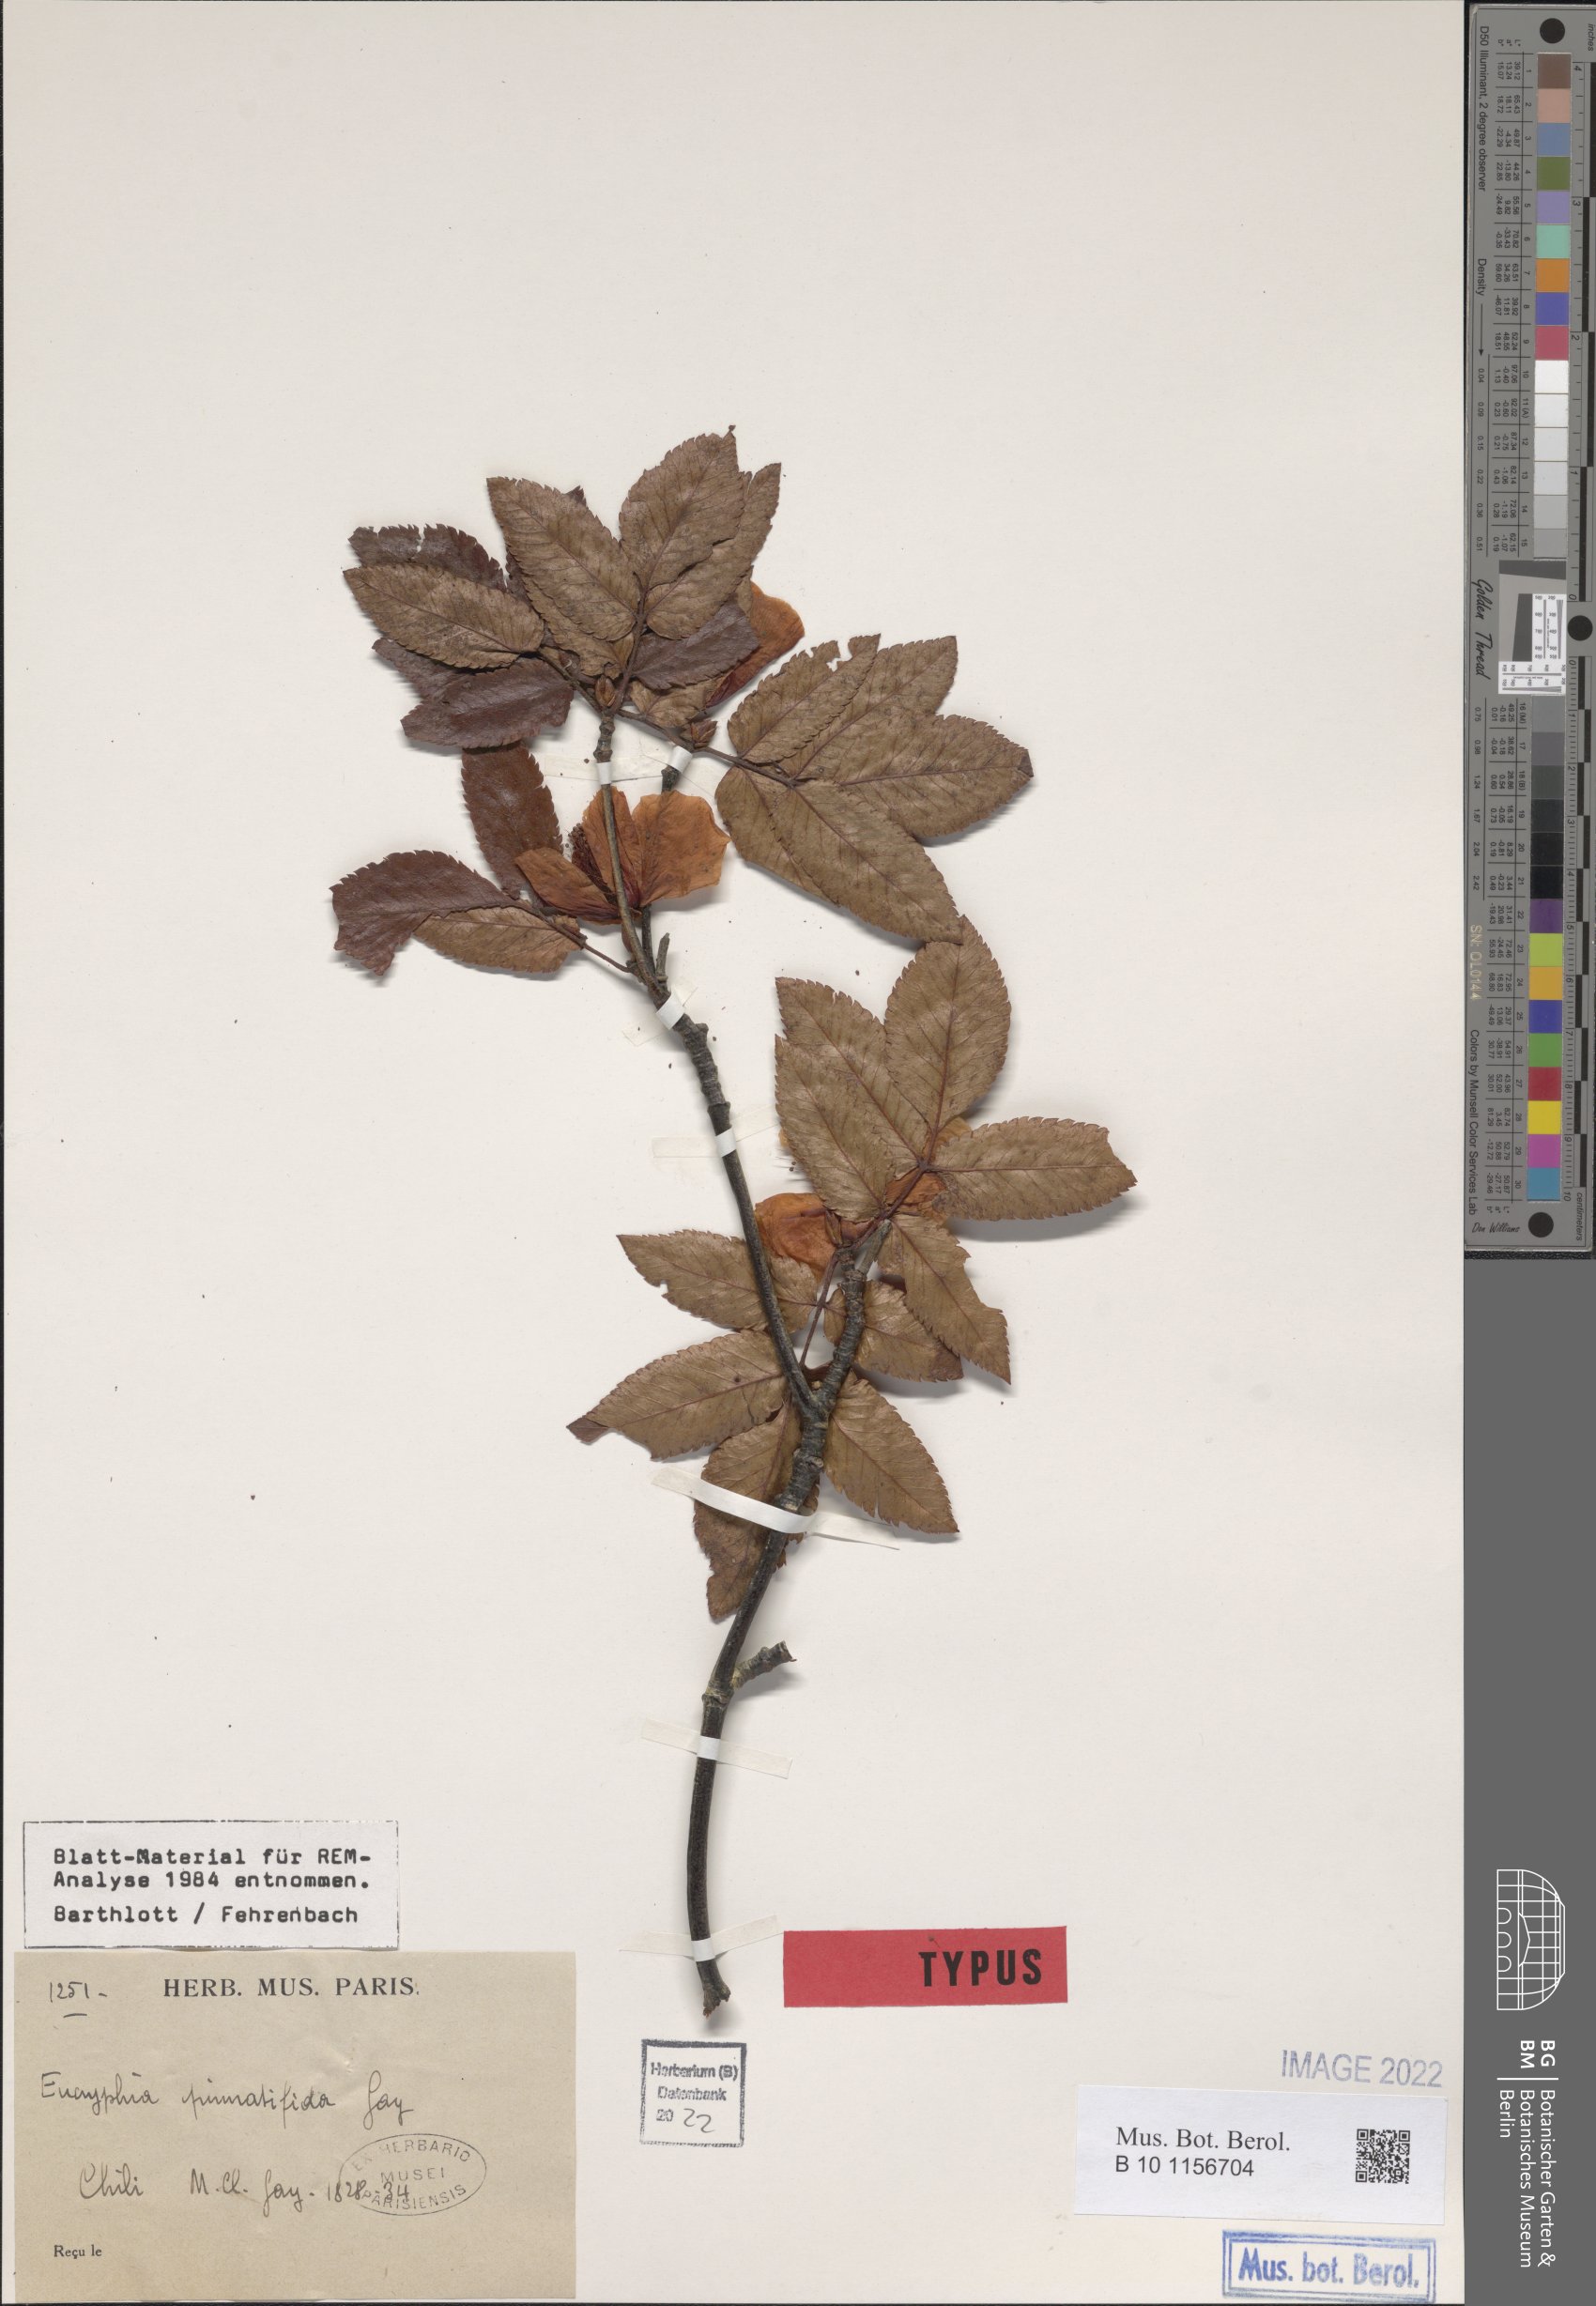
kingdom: Plantae
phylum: Tracheophyta
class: Magnoliopsida
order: Oxalidales
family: Cunoniaceae
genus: Eucryphia
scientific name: Eucryphia pinnatifida
